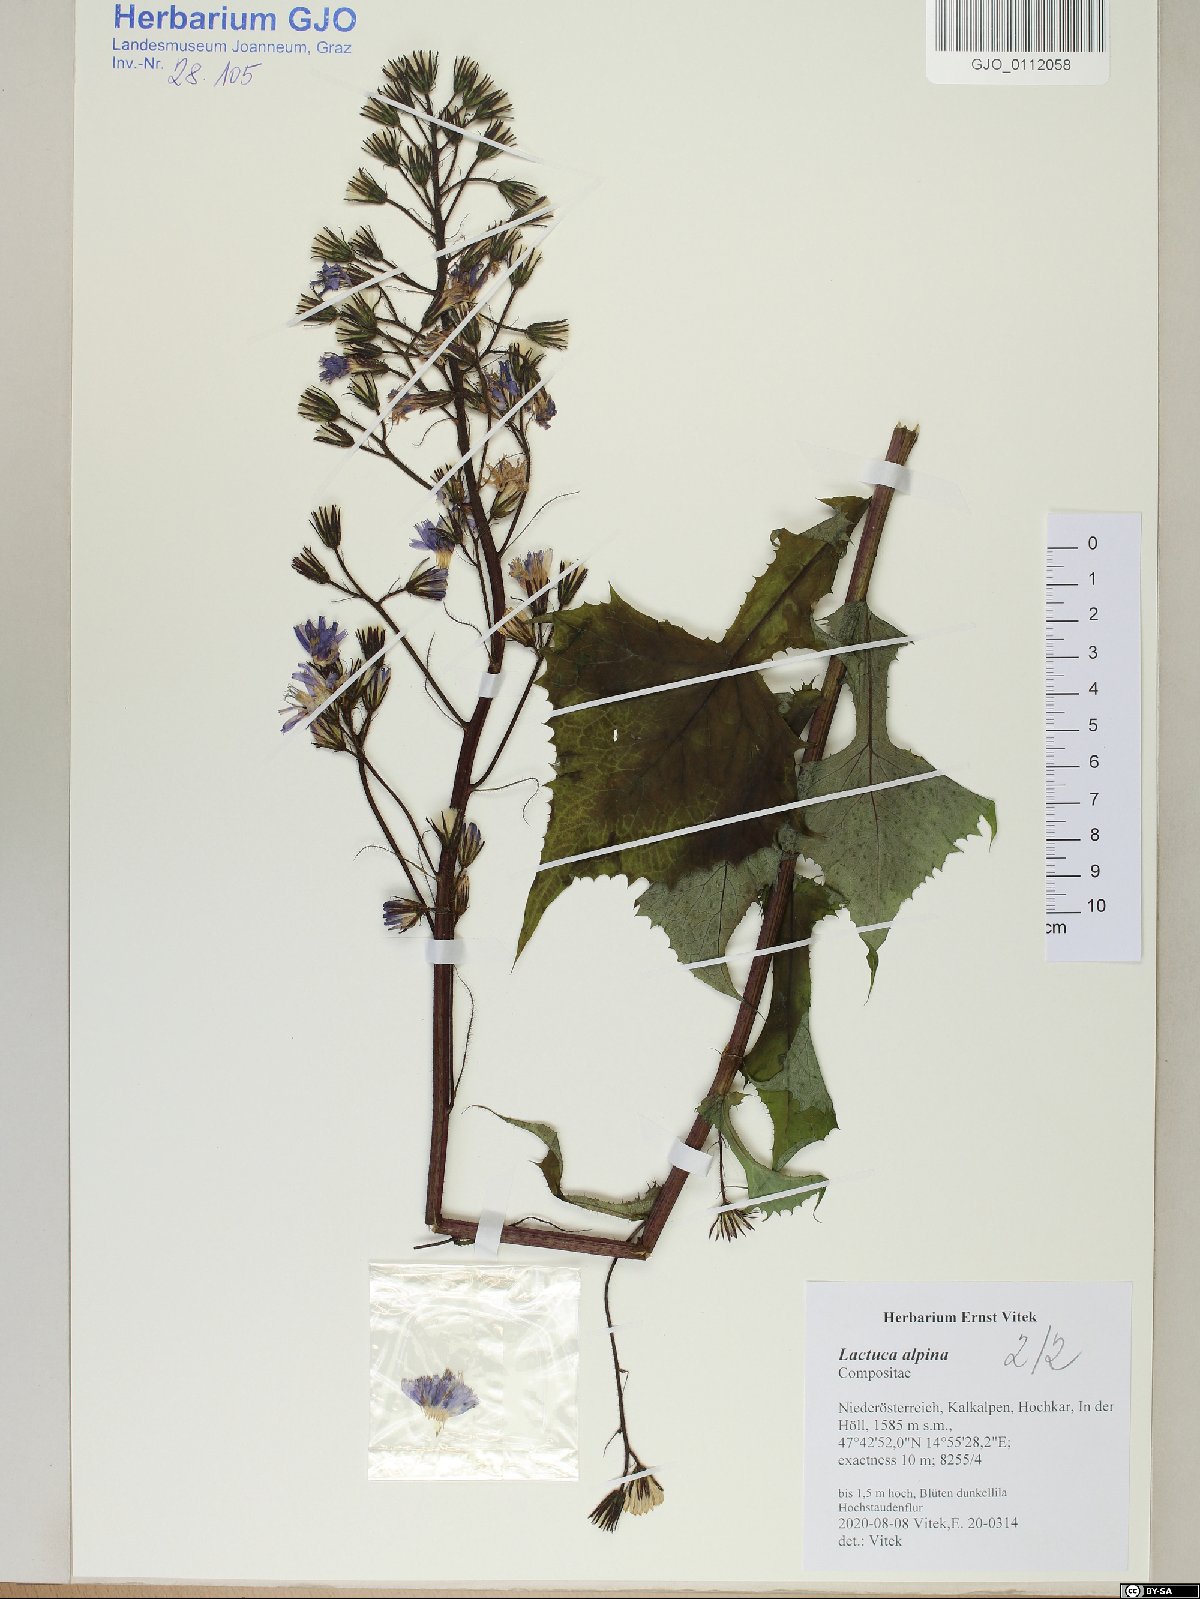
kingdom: Plantae
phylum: Tracheophyta
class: Magnoliopsida
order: Asterales
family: Asteraceae
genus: Lactuca
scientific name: Lactuca alpina
